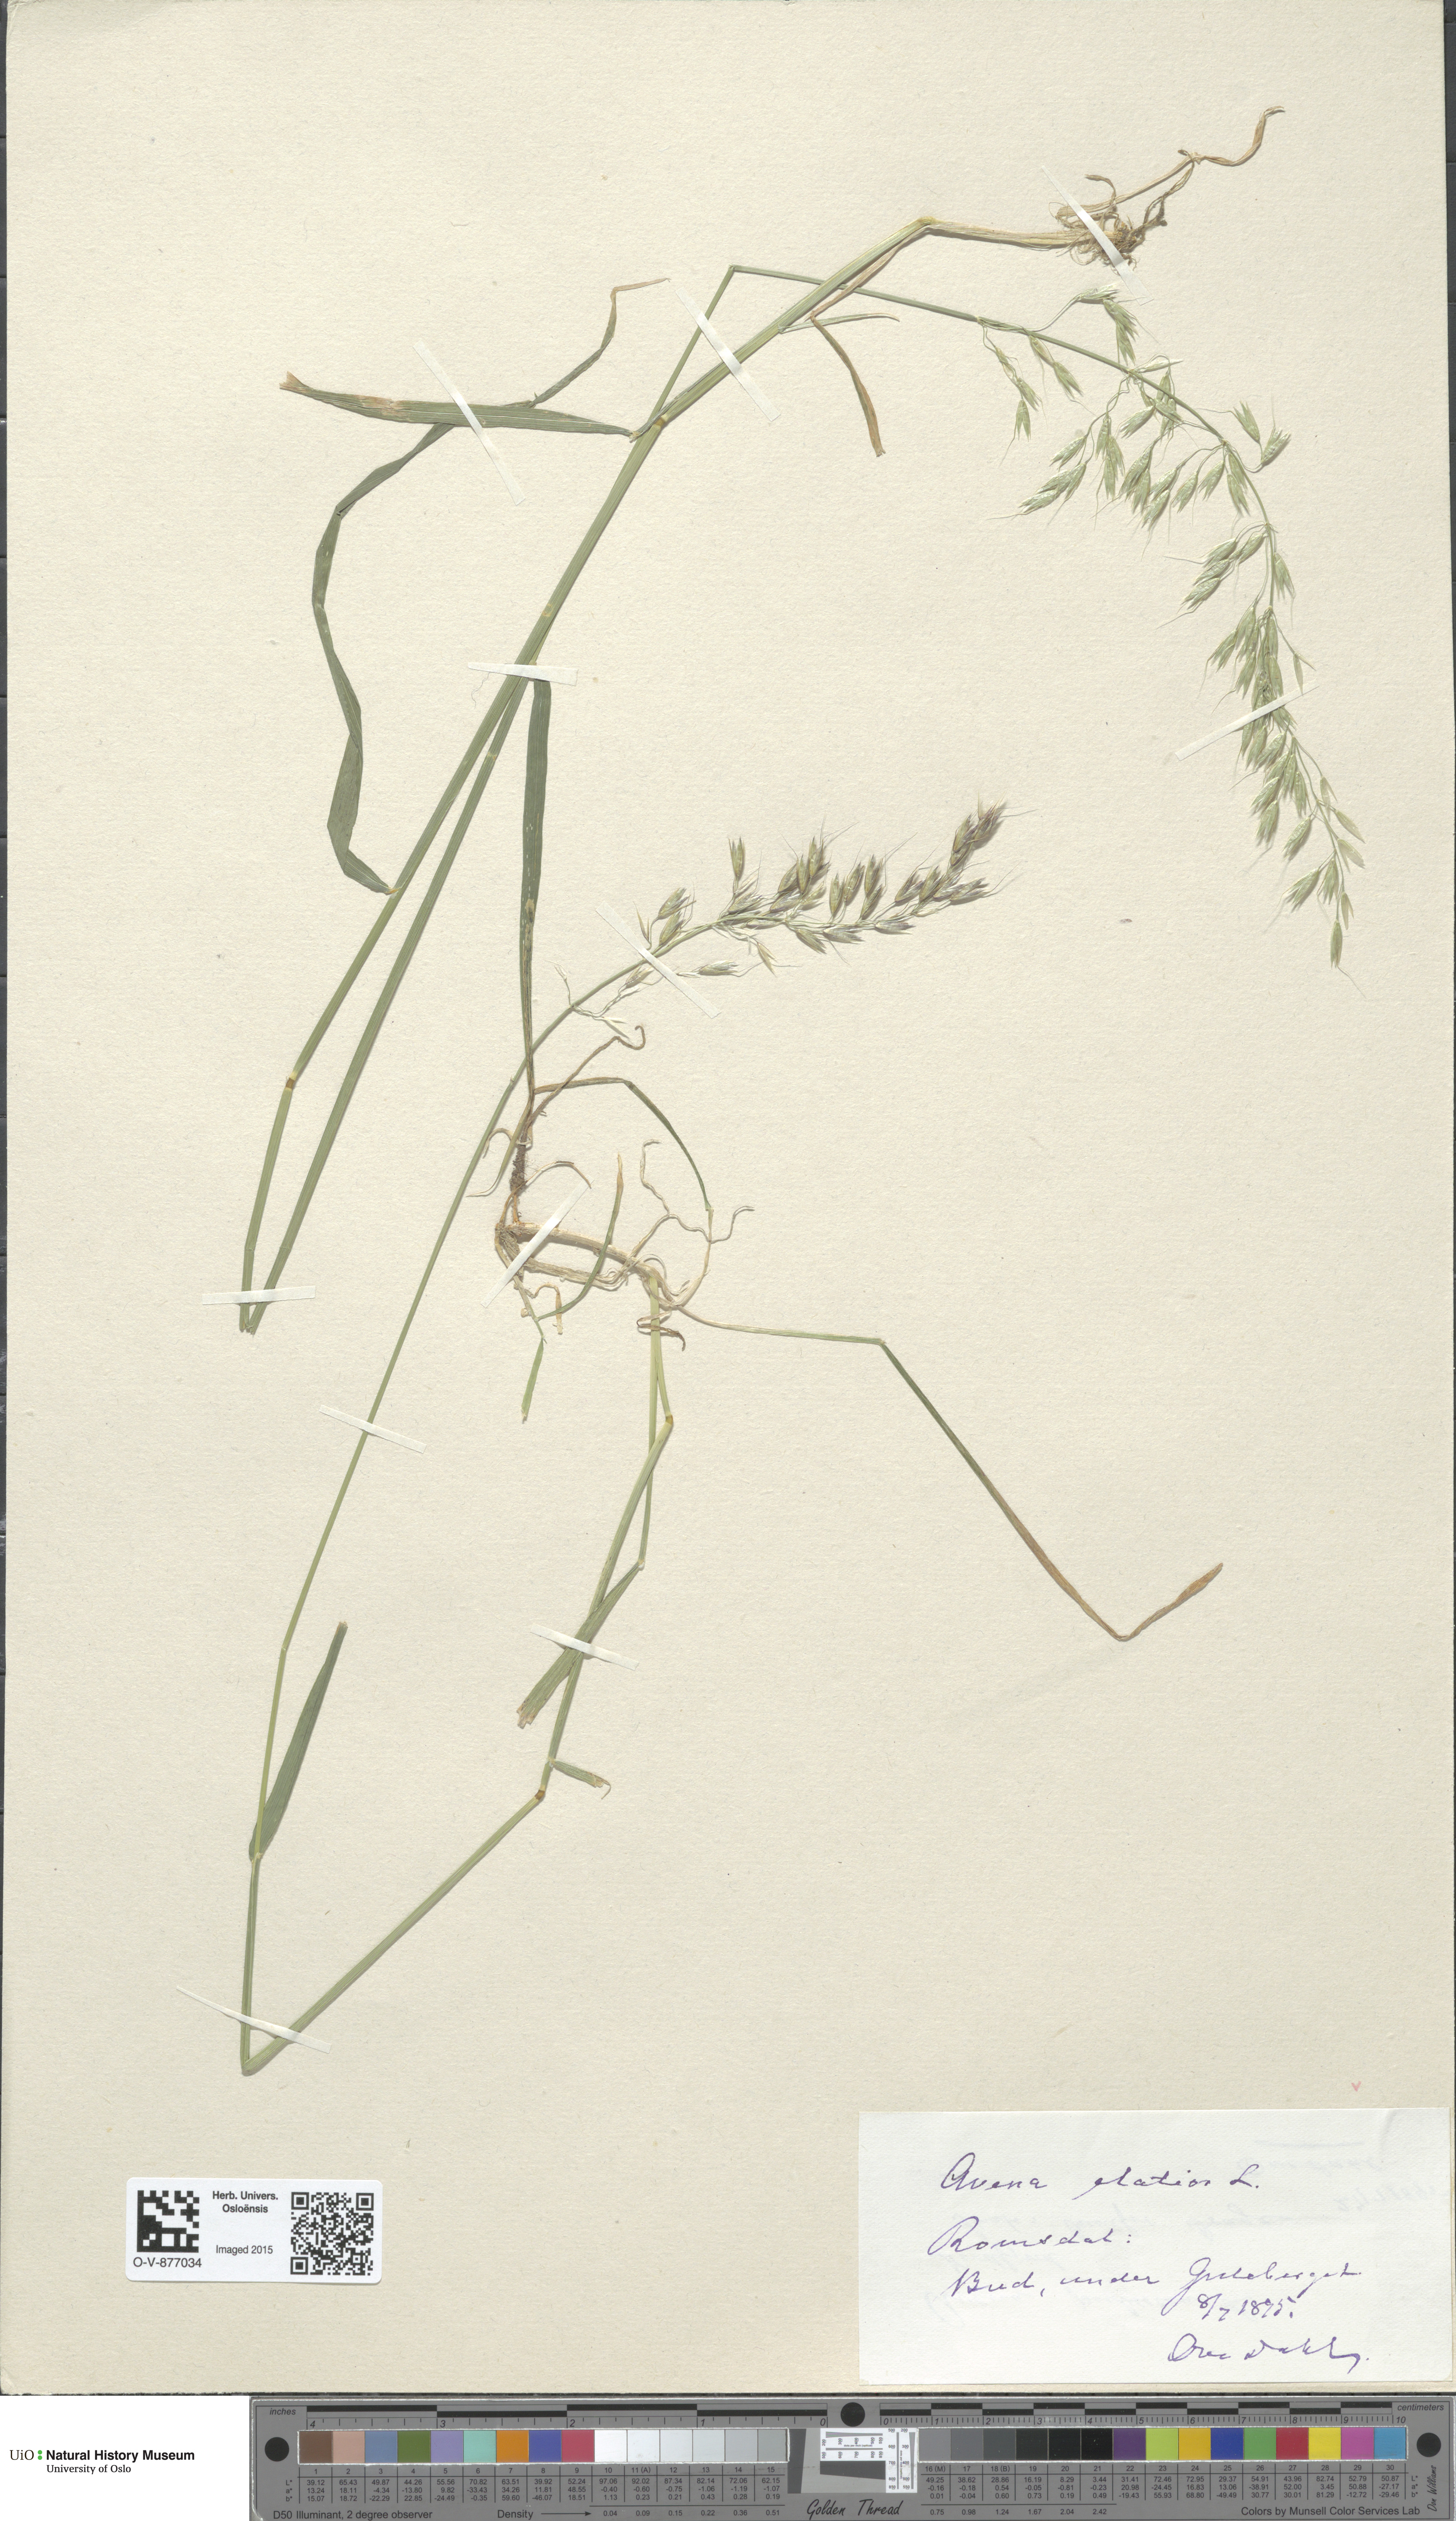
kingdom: Plantae
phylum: Tracheophyta
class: Liliopsida
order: Poales
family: Poaceae
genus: Arrhenatherum
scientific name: Arrhenatherum elatius
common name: Tall oatgrass
